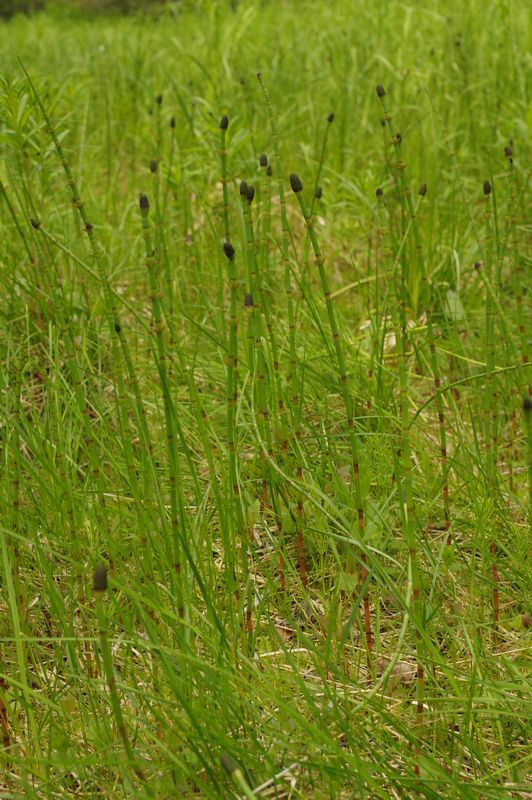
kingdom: Plantae
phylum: Tracheophyta
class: Polypodiopsida
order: Equisetales
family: Equisetaceae
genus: Equisetum
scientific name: Equisetum fluviatile
